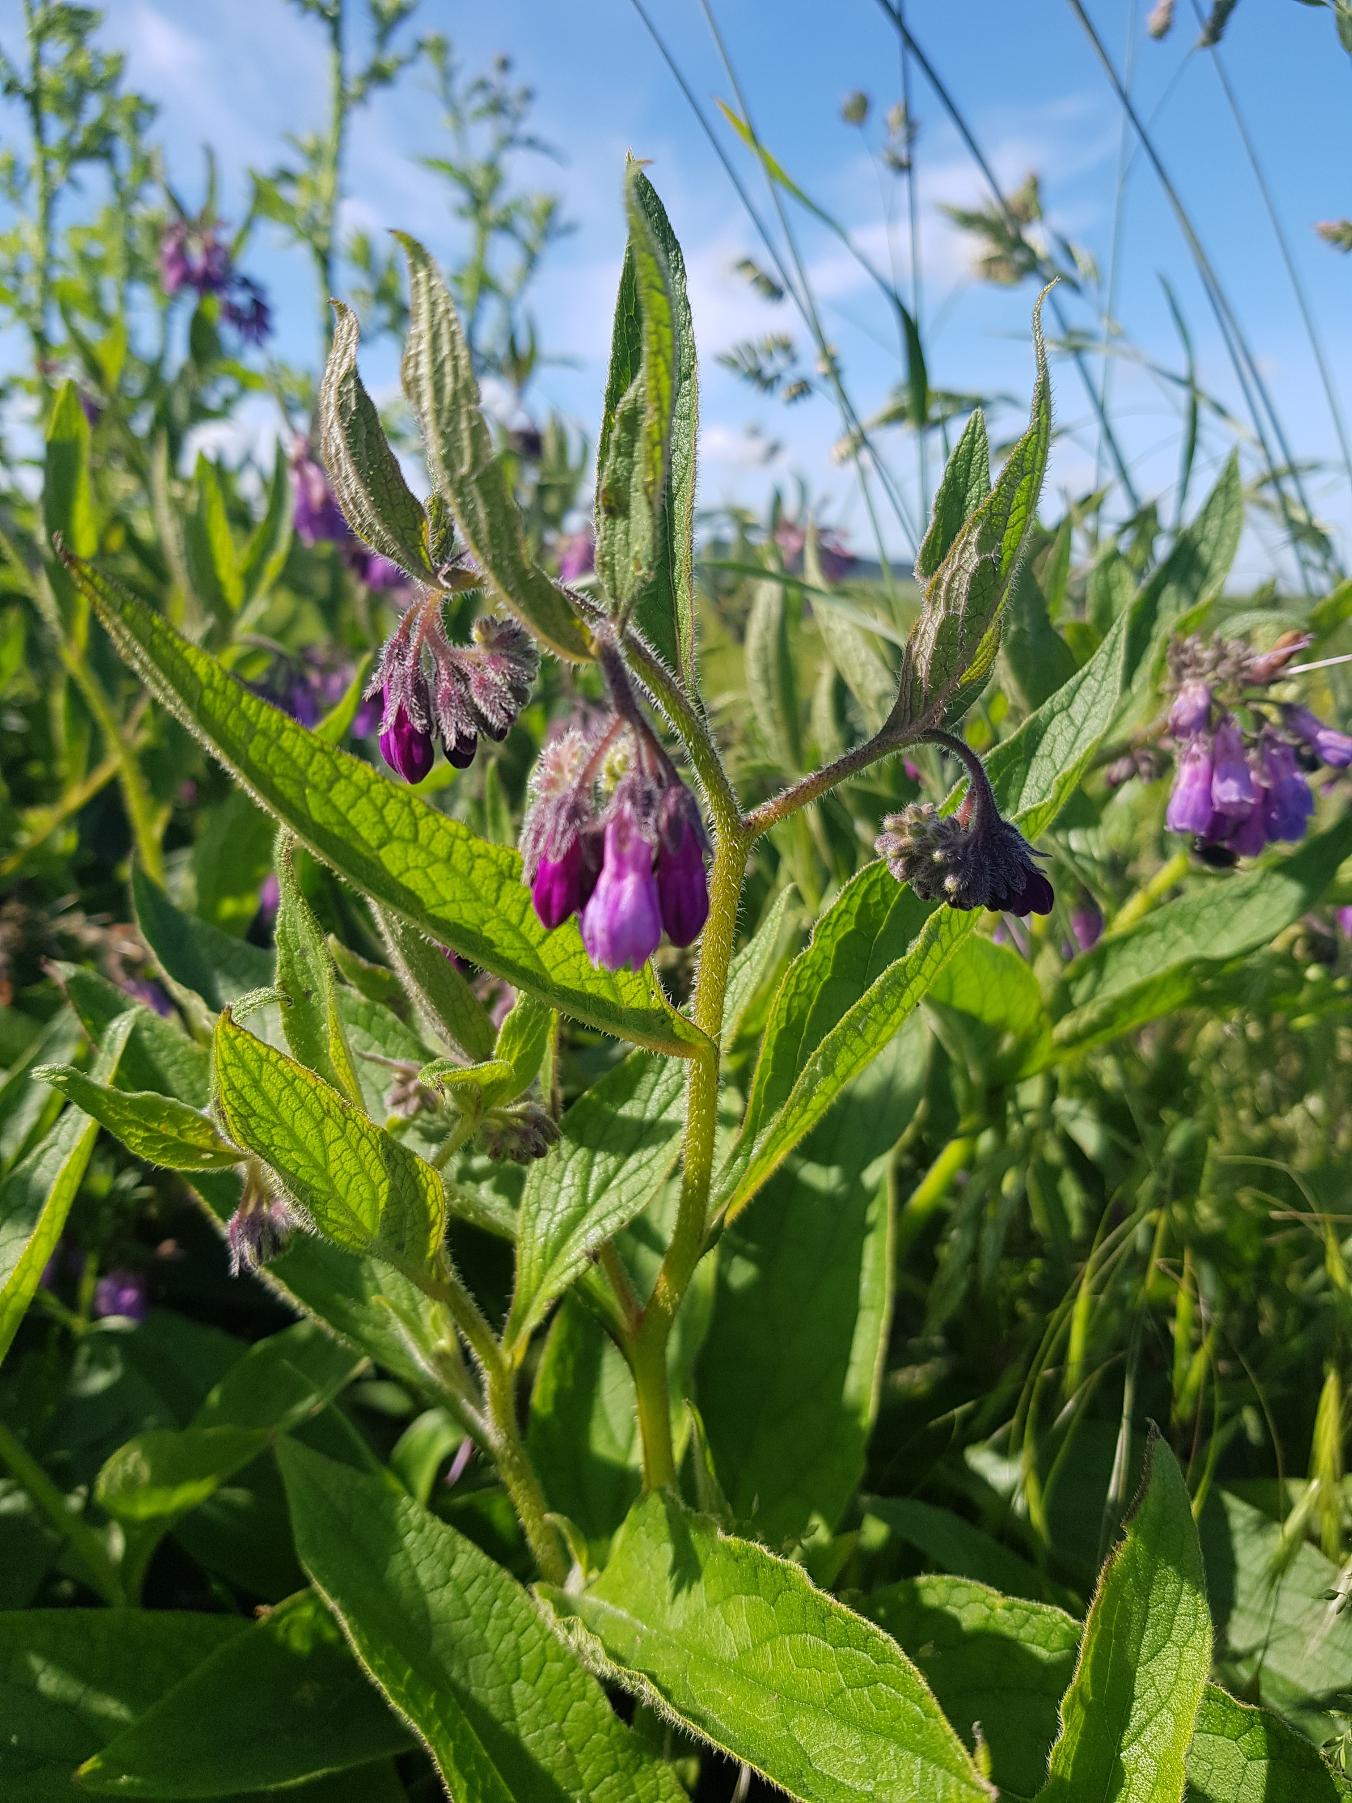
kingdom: Plantae
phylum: Tracheophyta
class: Magnoliopsida
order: Boraginales
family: Boraginaceae
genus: Symphytum
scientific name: Symphytum uplandicum
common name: Foder-kulsukker
